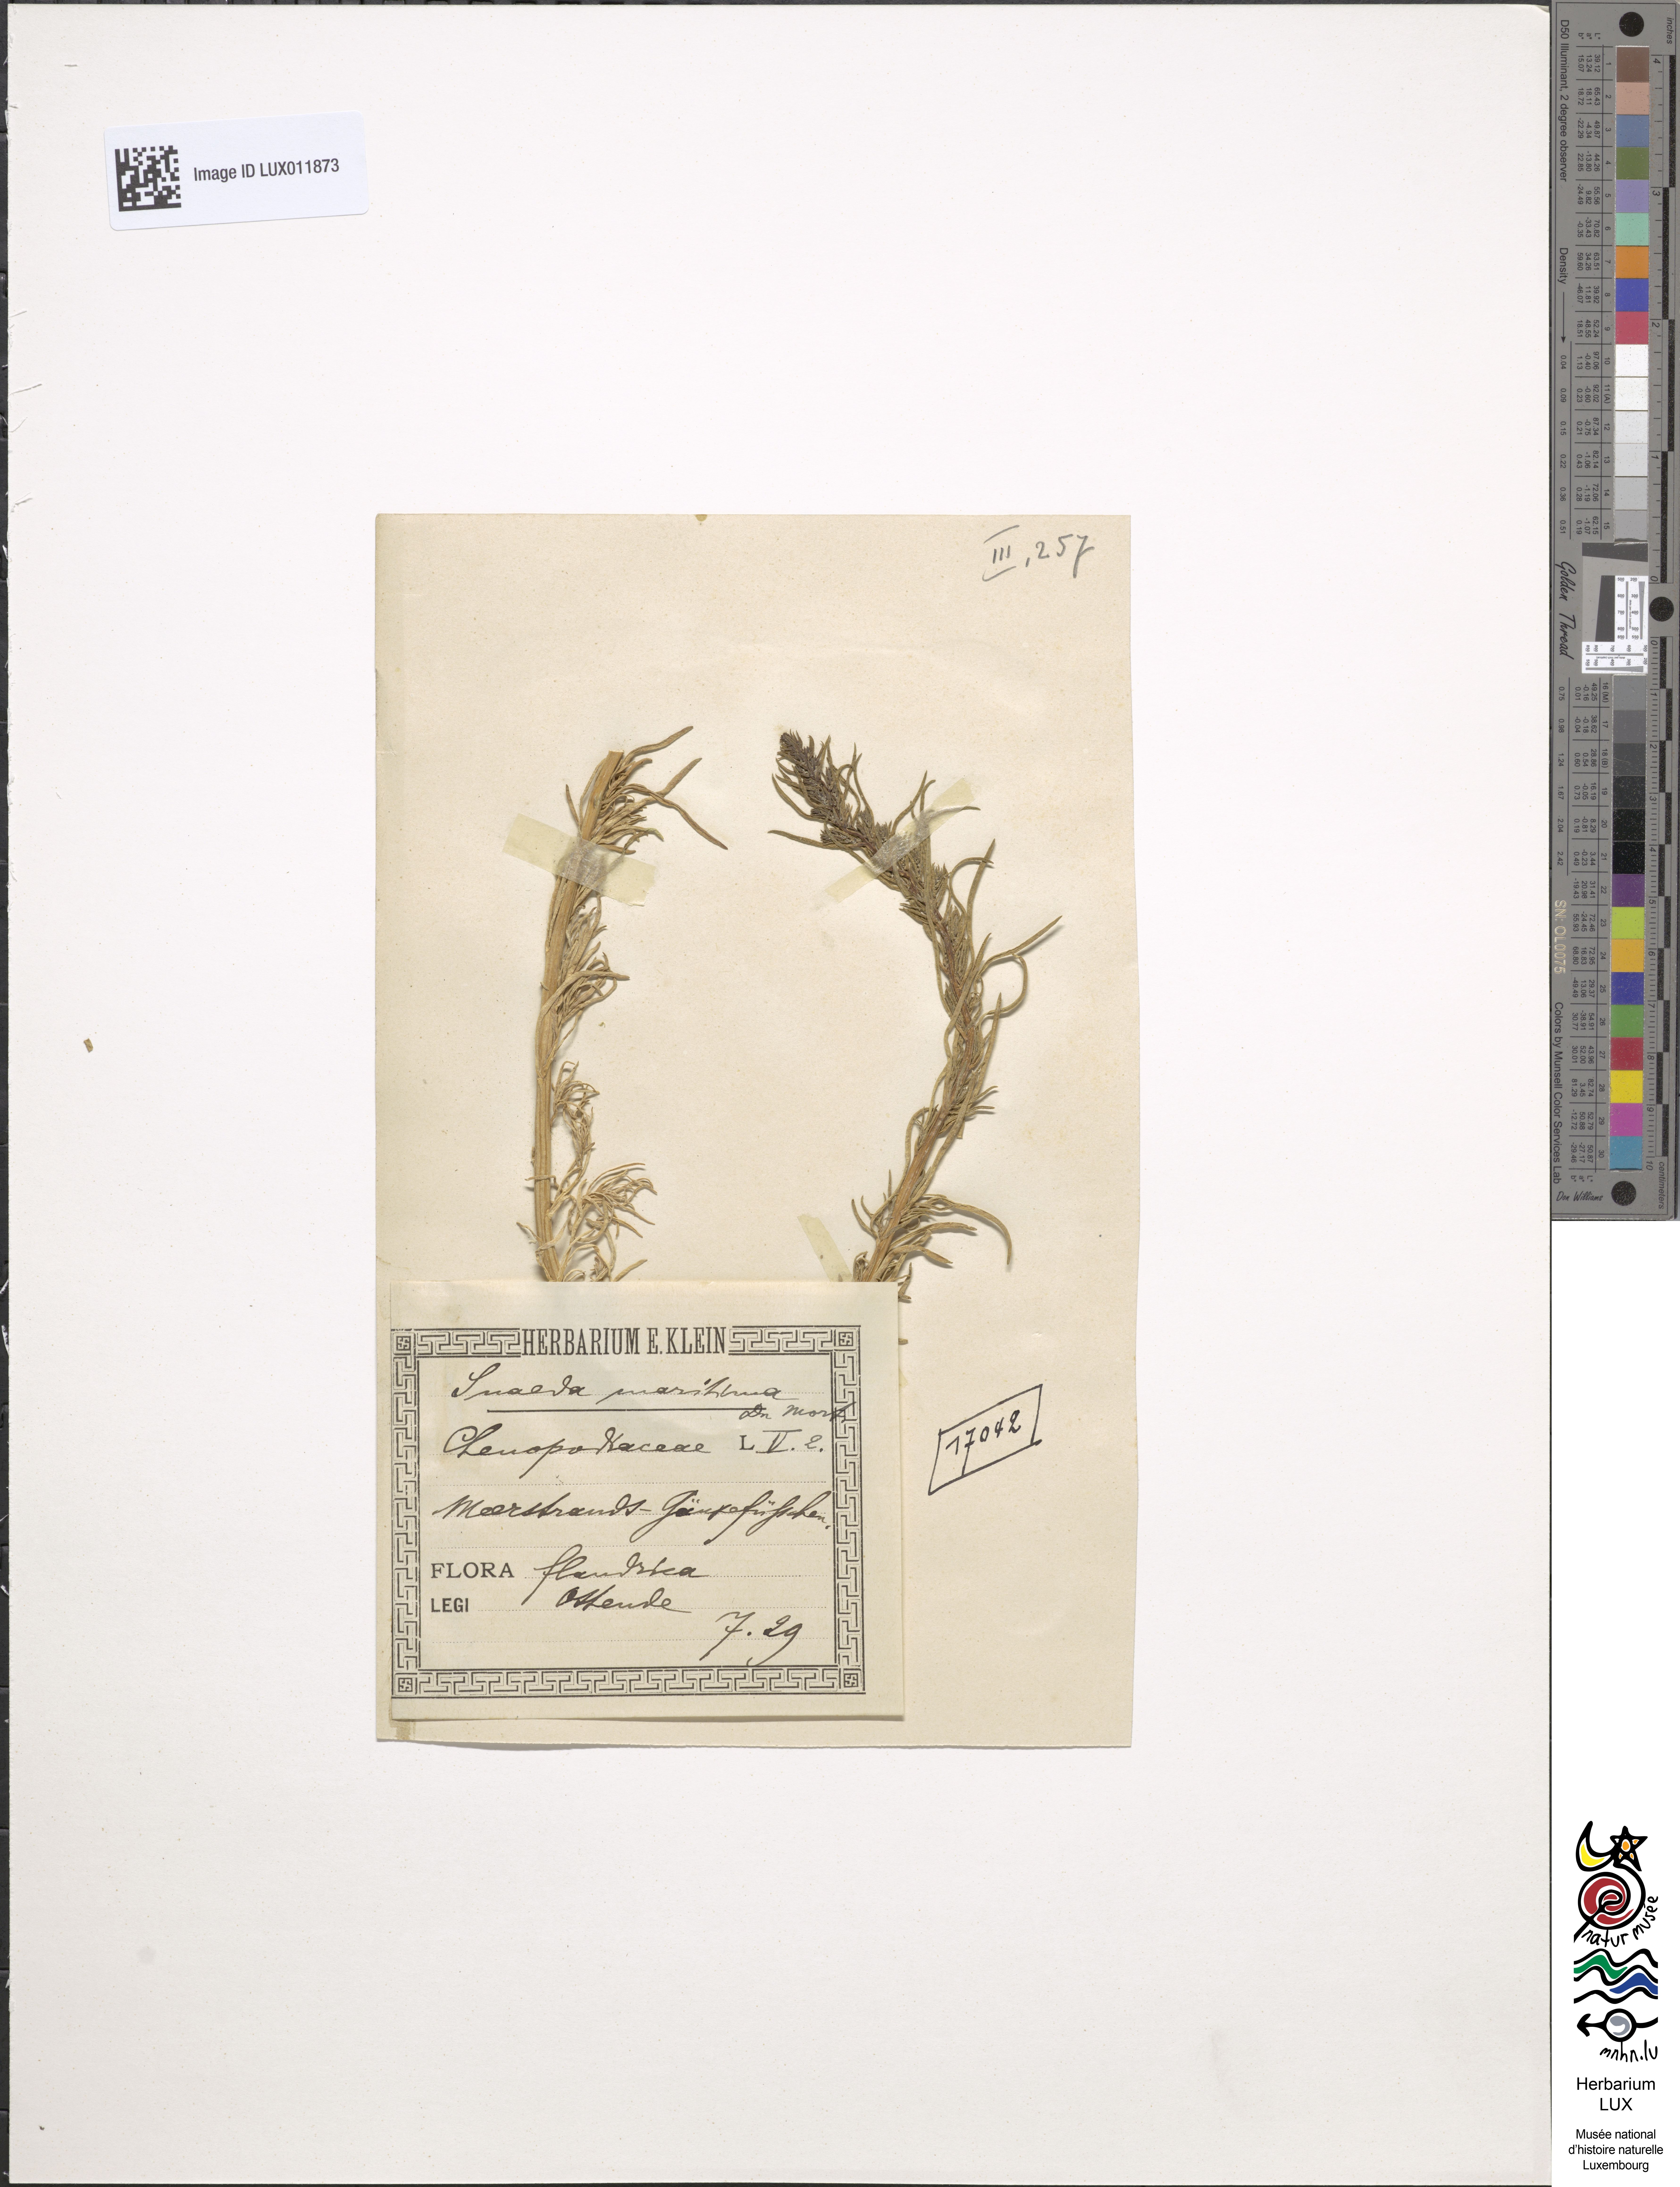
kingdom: Plantae
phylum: Tracheophyta
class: Magnoliopsida
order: Caryophyllales
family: Amaranthaceae
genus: Suaeda
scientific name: Suaeda maritima
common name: Annual sea-blite
